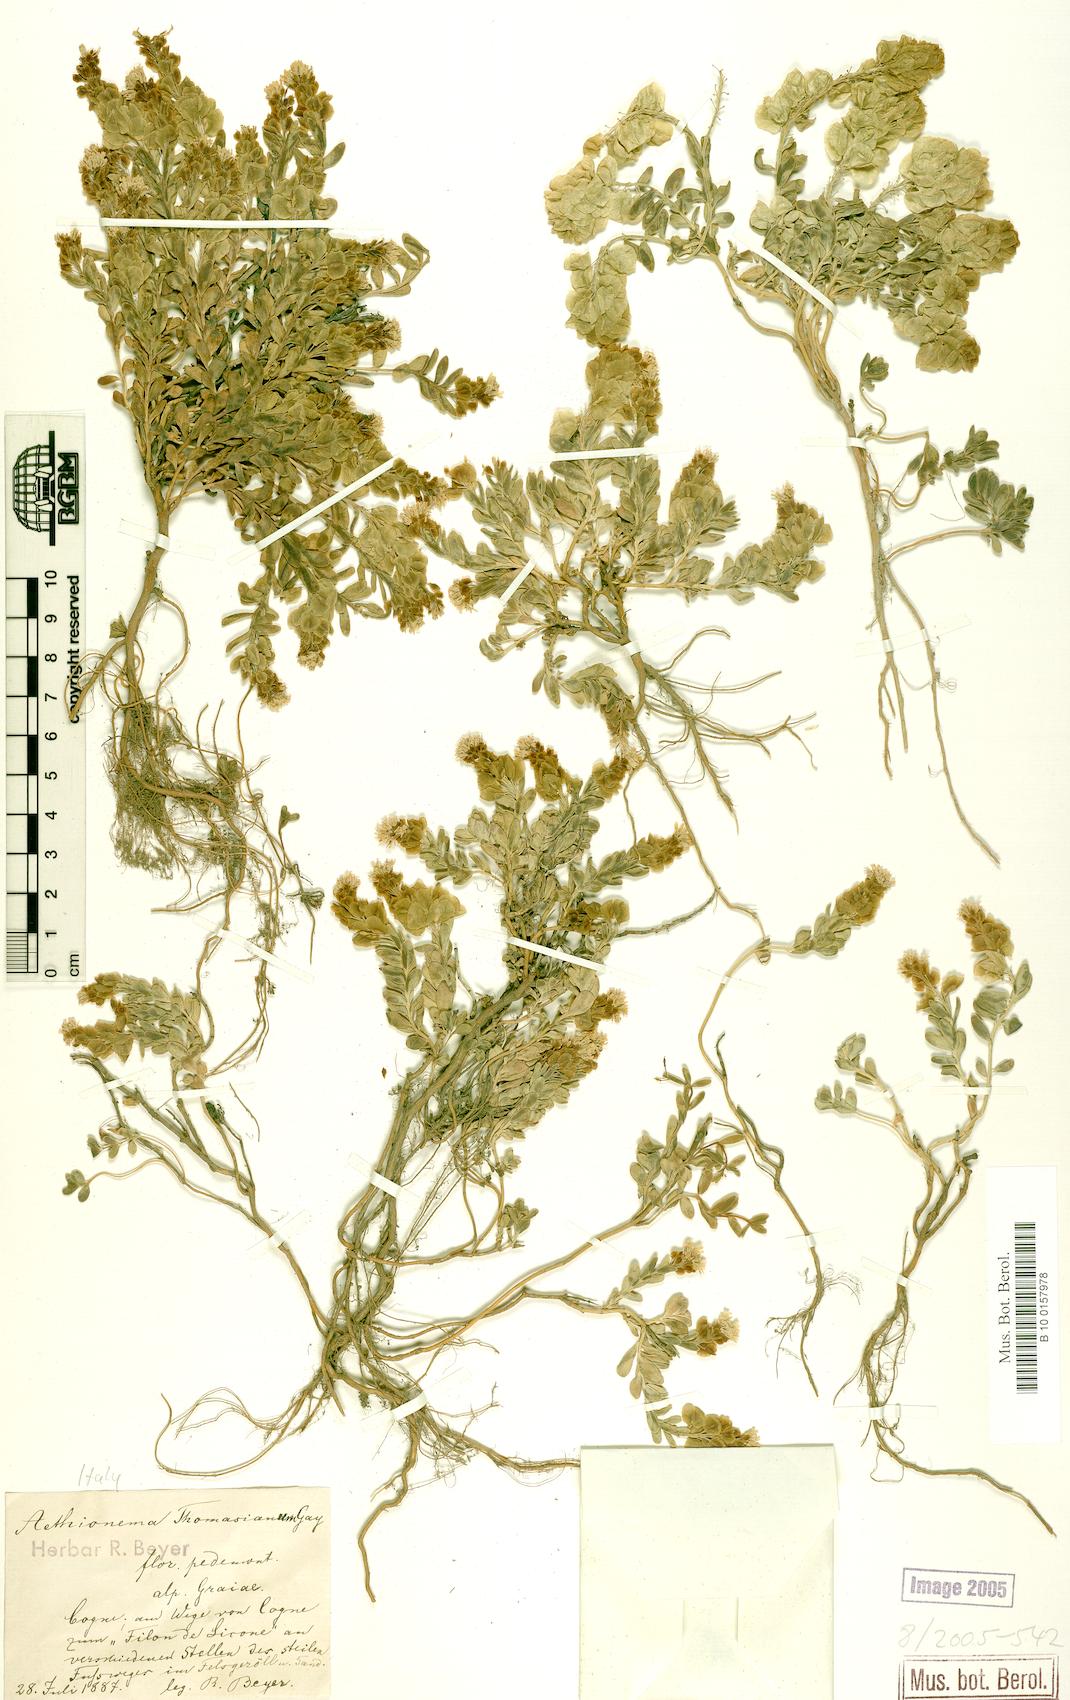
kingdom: Plantae
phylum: Tracheophyta
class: Magnoliopsida
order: Brassicales
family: Brassicaceae
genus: Aethionema
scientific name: Aethionema thomasianum
